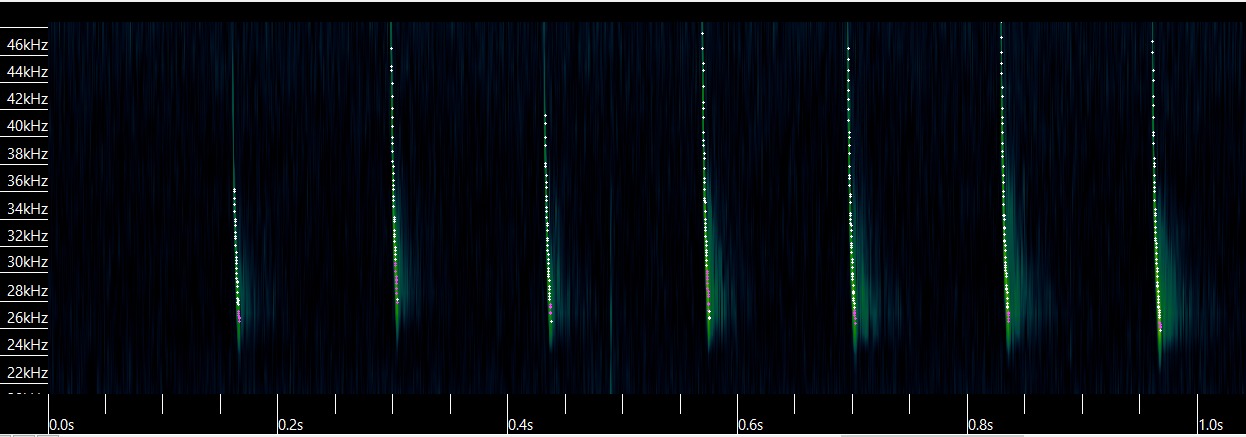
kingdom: Animalia
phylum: Chordata
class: Mammalia
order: Chiroptera
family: Vespertilionidae
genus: Eptesicus
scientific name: Eptesicus serotinus
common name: Sydflagermus
